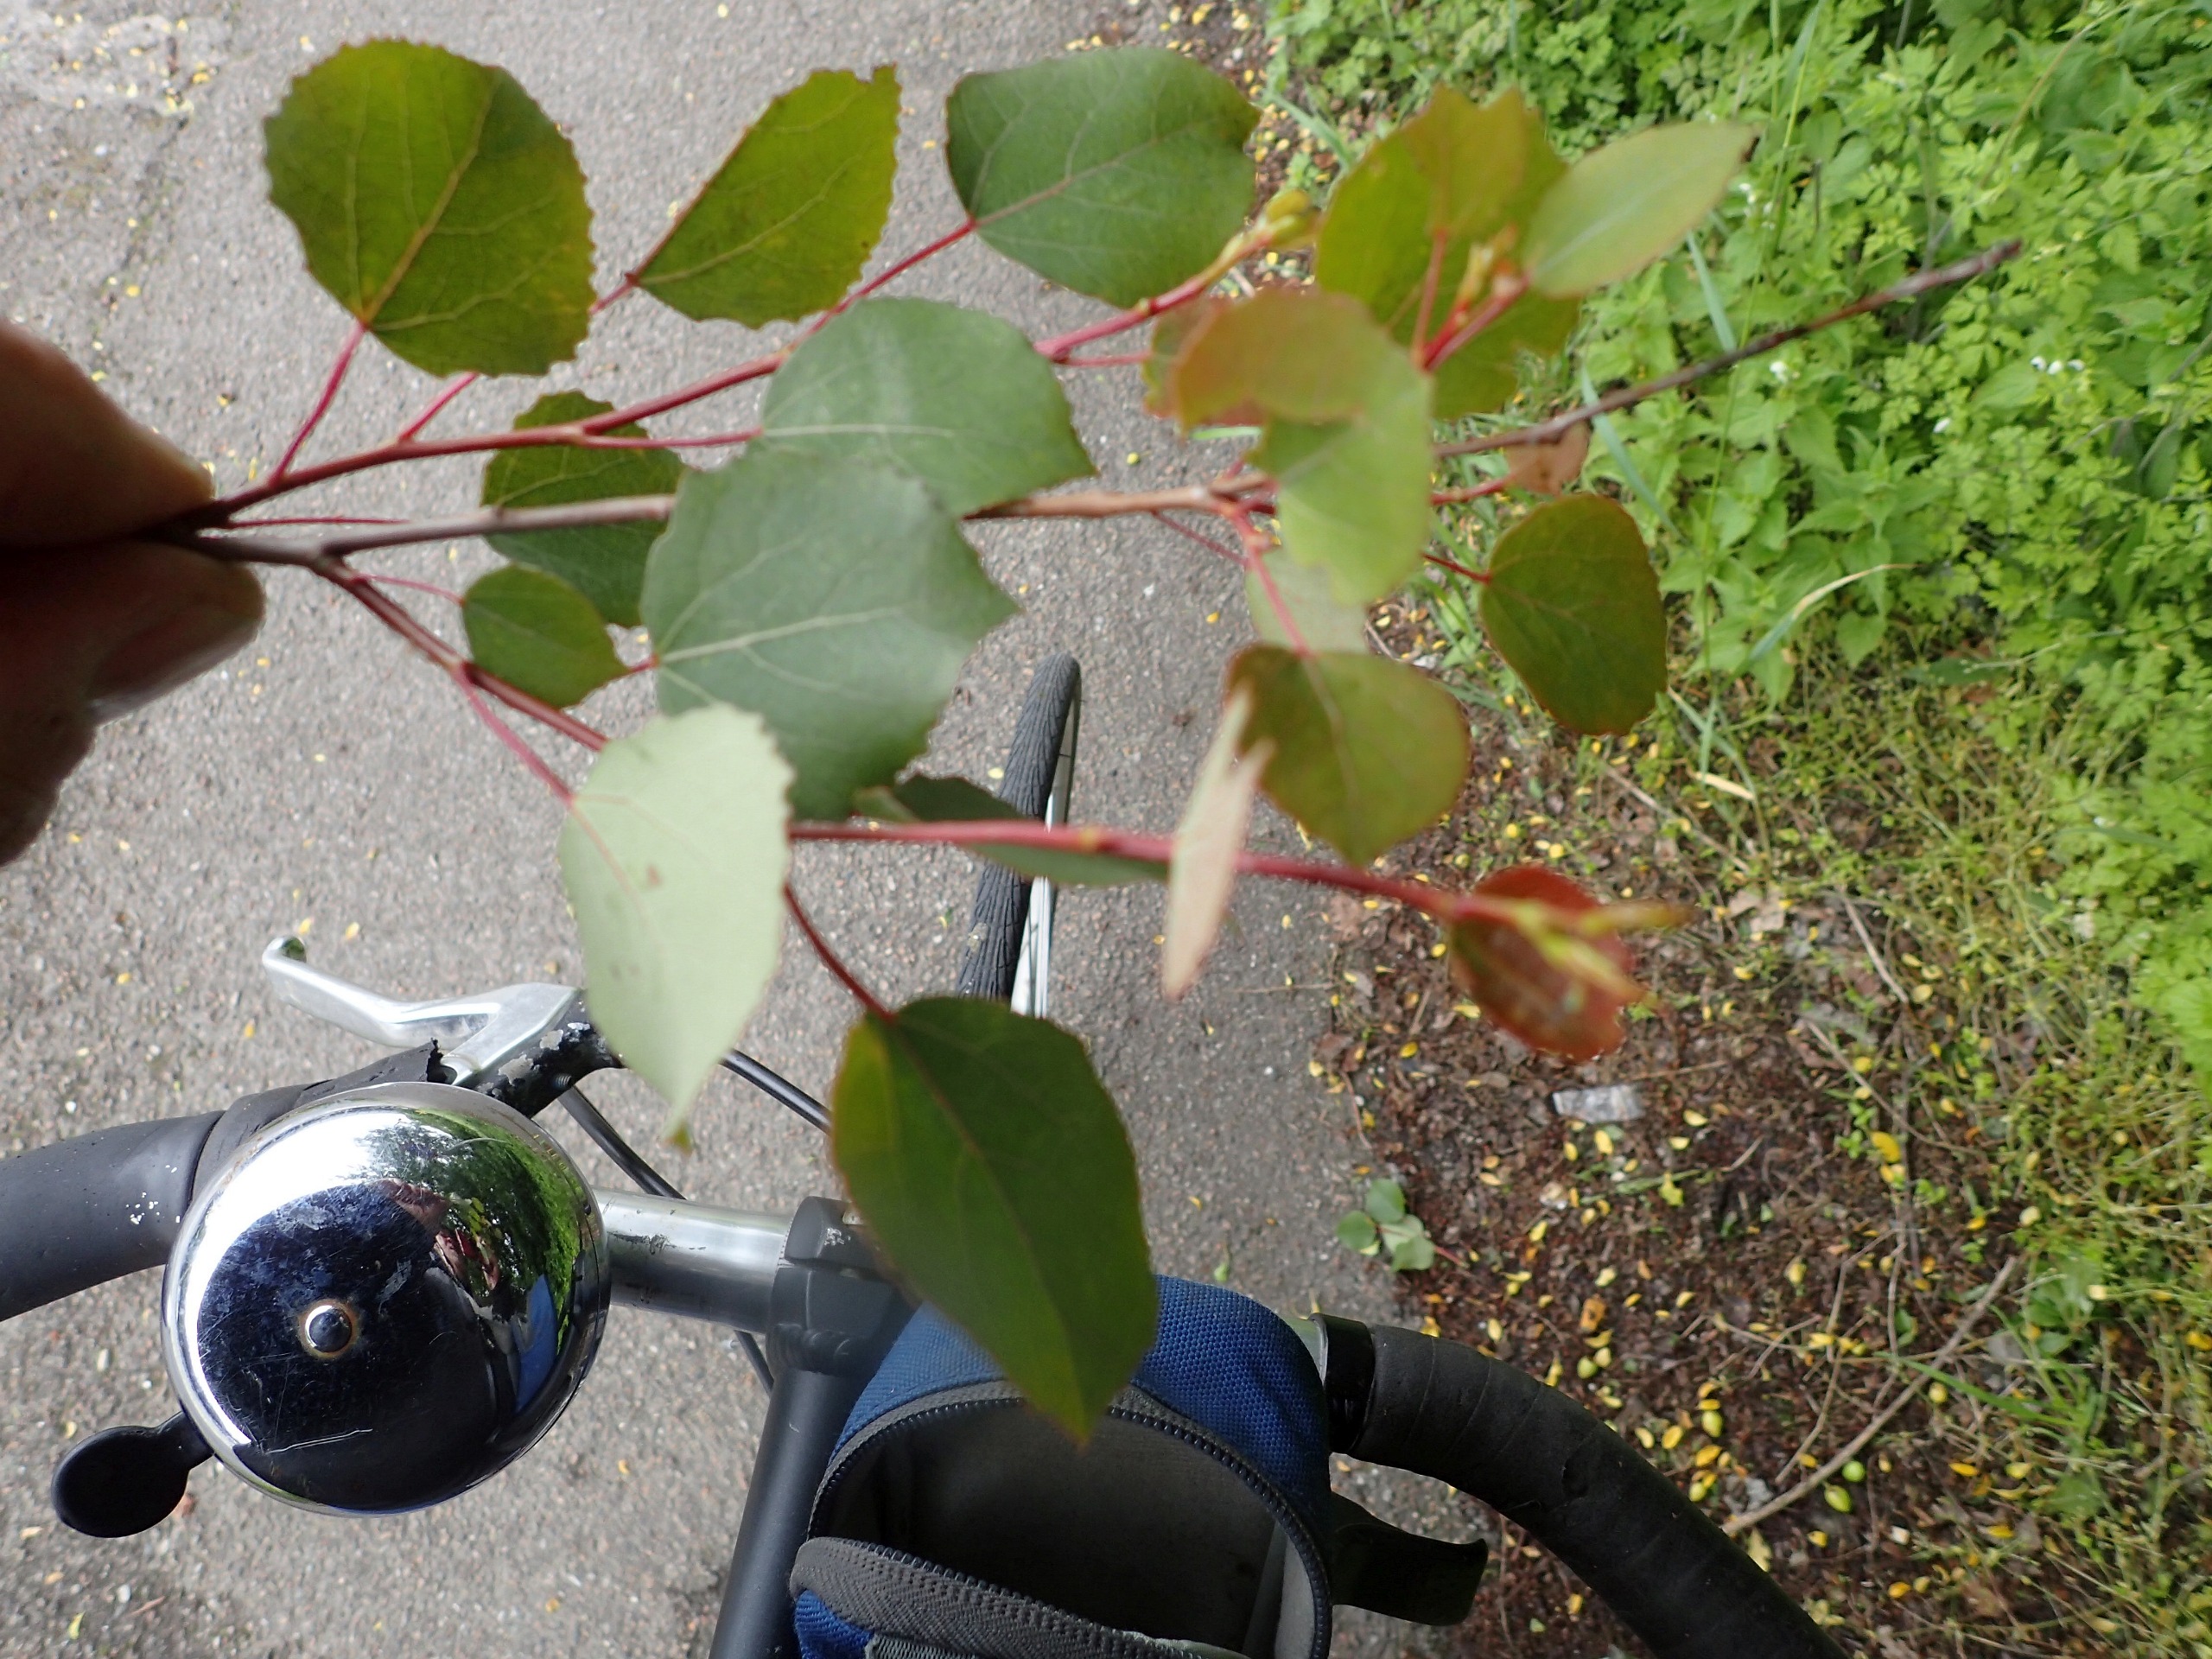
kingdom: Plantae
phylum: Tracheophyta
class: Magnoliopsida
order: Malpighiales
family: Salicaceae
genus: Populus
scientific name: Populus tremula
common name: Bævreasp
